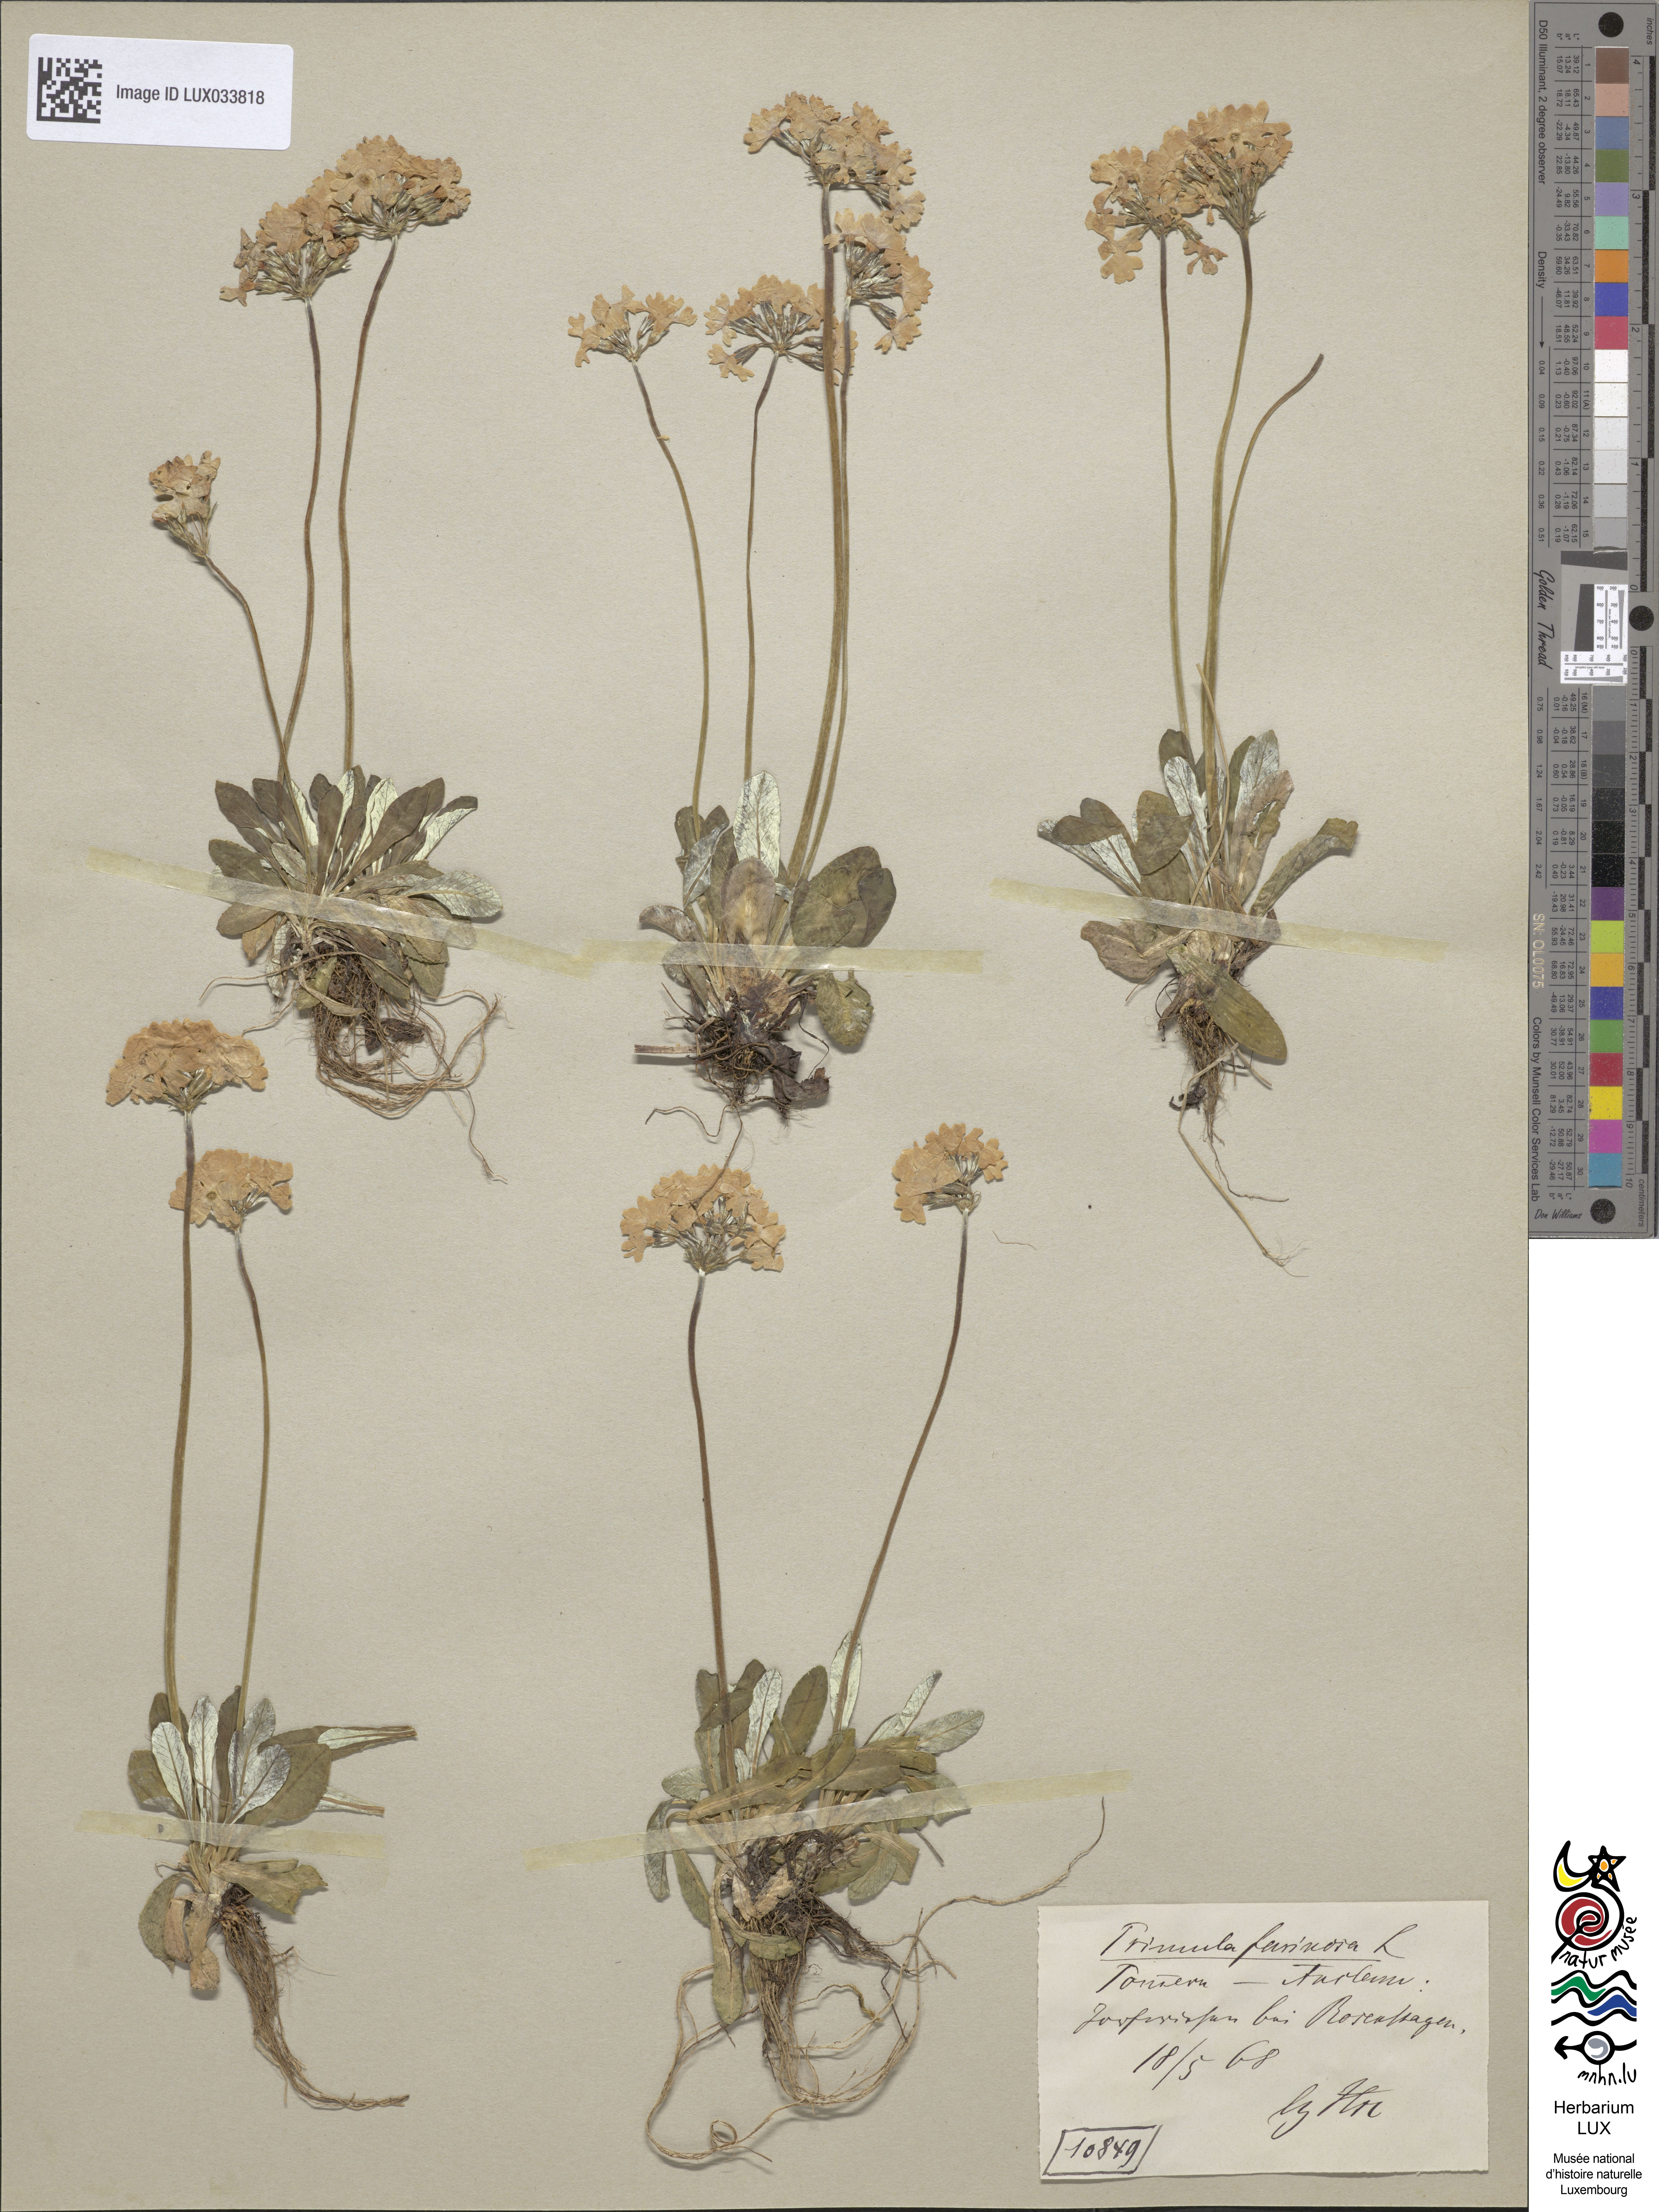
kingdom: Plantae
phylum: Tracheophyta
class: Magnoliopsida
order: Ericales
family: Primulaceae
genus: Primula
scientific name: Primula farinosa
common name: Bird's-eye primrose
